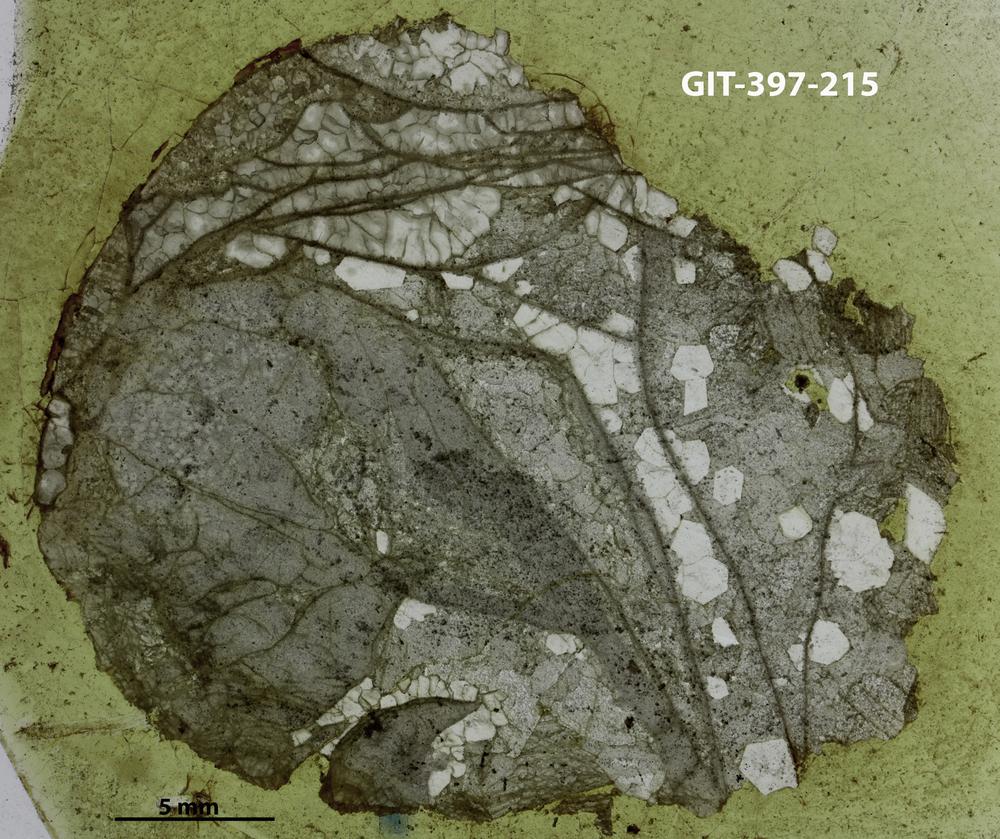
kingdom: Animalia
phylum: Cnidaria
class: Anthozoa
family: Ketophyllidae
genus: Dokophyllum
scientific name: Dokophyllum
